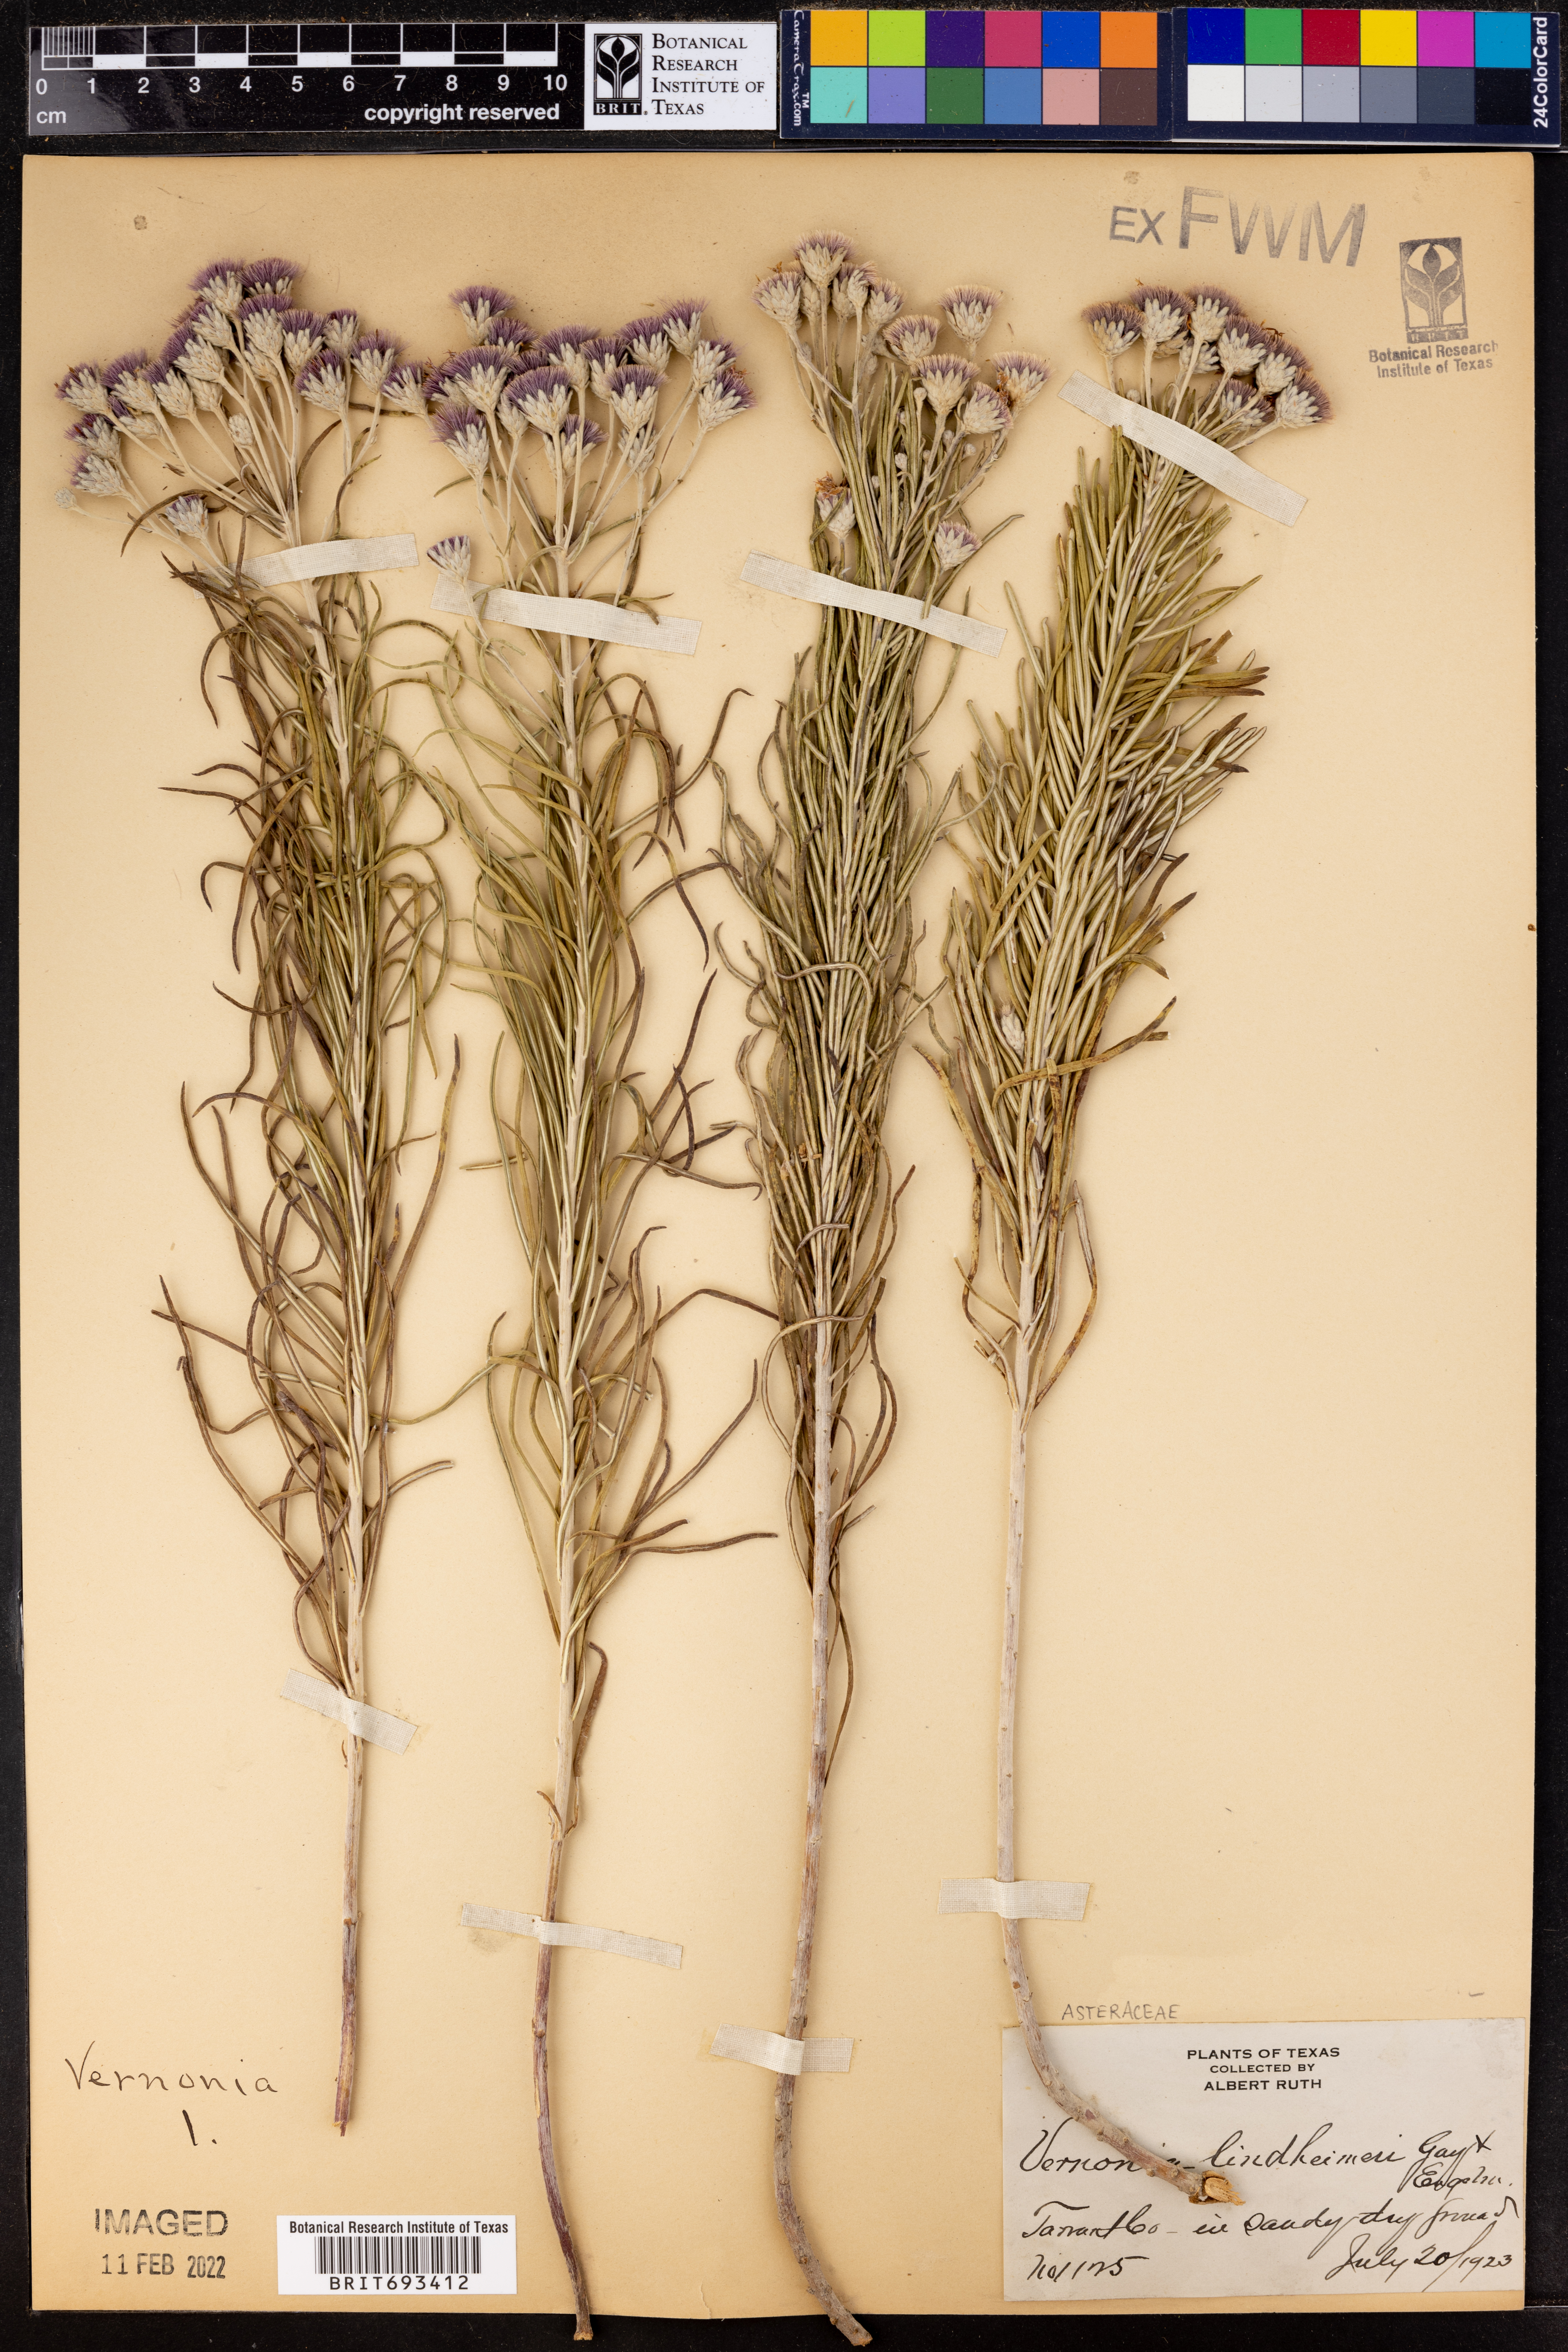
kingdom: Plantae
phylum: Tracheophyta
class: Magnoliopsida
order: Asterales
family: Asteraceae
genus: Vernonia
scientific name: Vernonia lindheimeri
